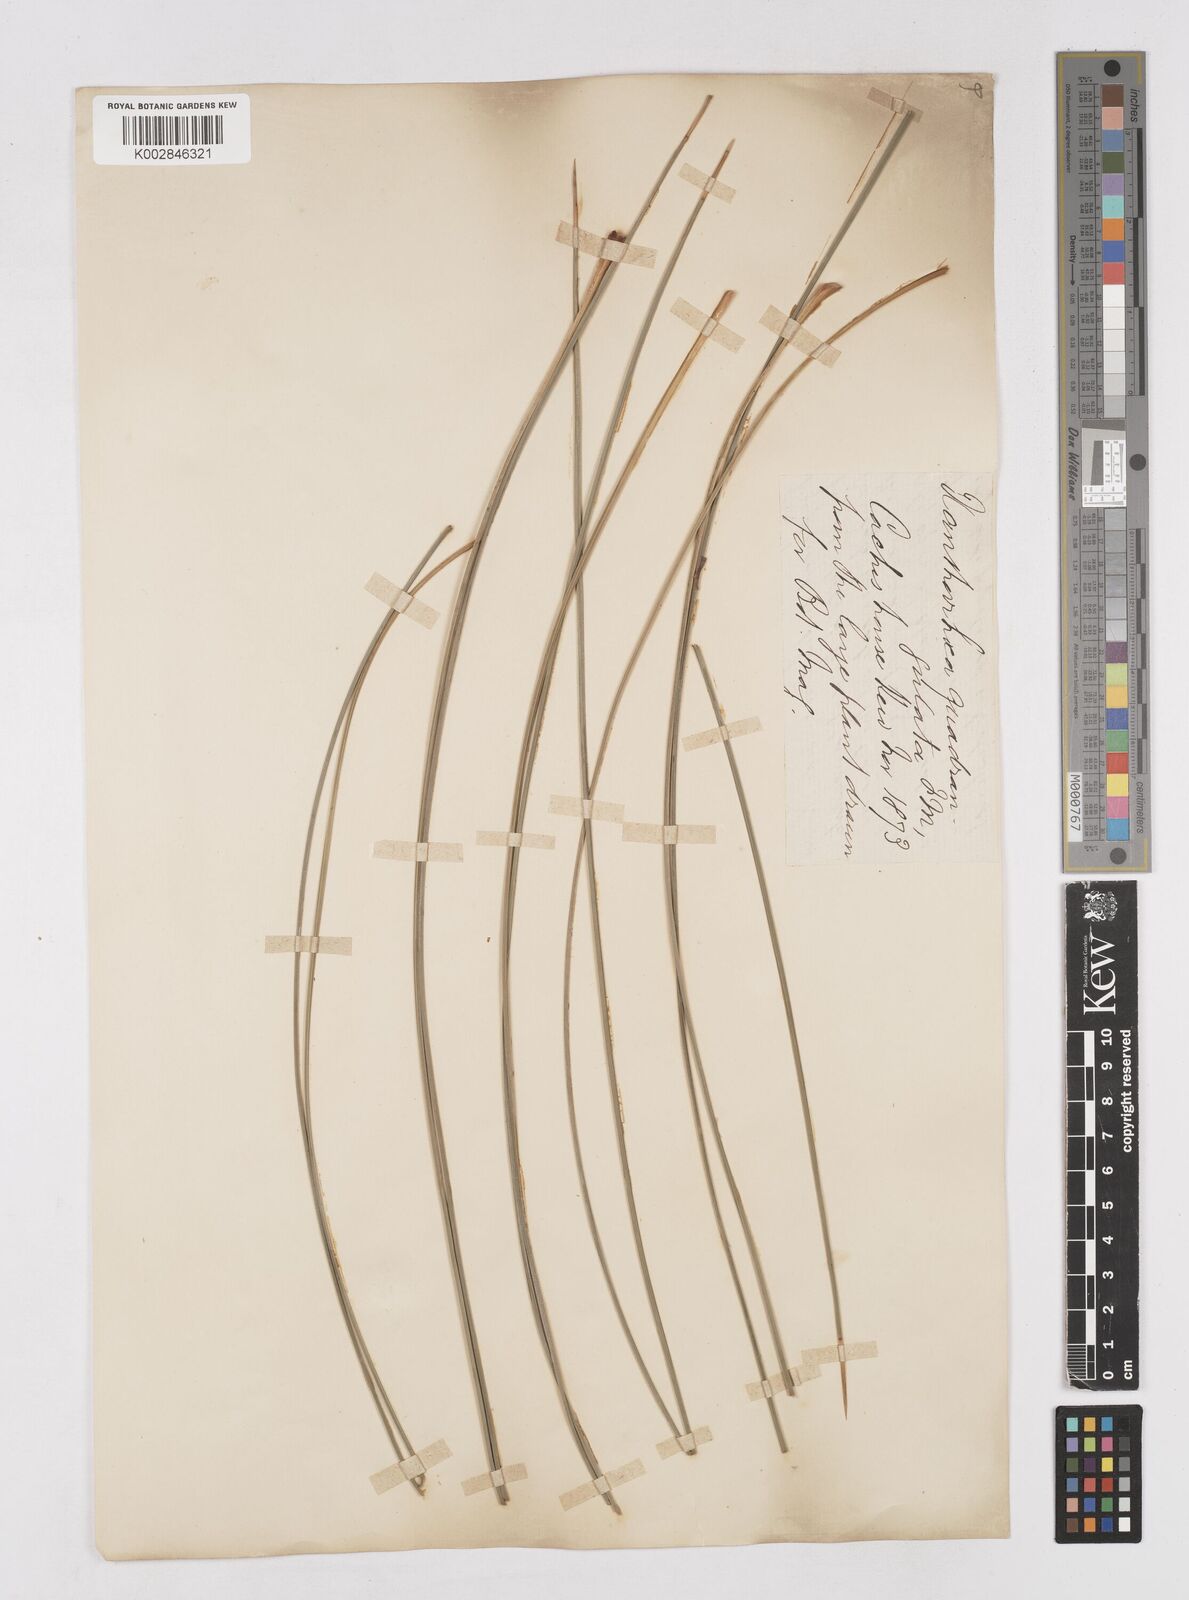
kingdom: Plantae
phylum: Tracheophyta
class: Liliopsida
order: Asparagales
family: Asphodelaceae
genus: Xanthorrhoea
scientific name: Xanthorrhoea quadrangulata
